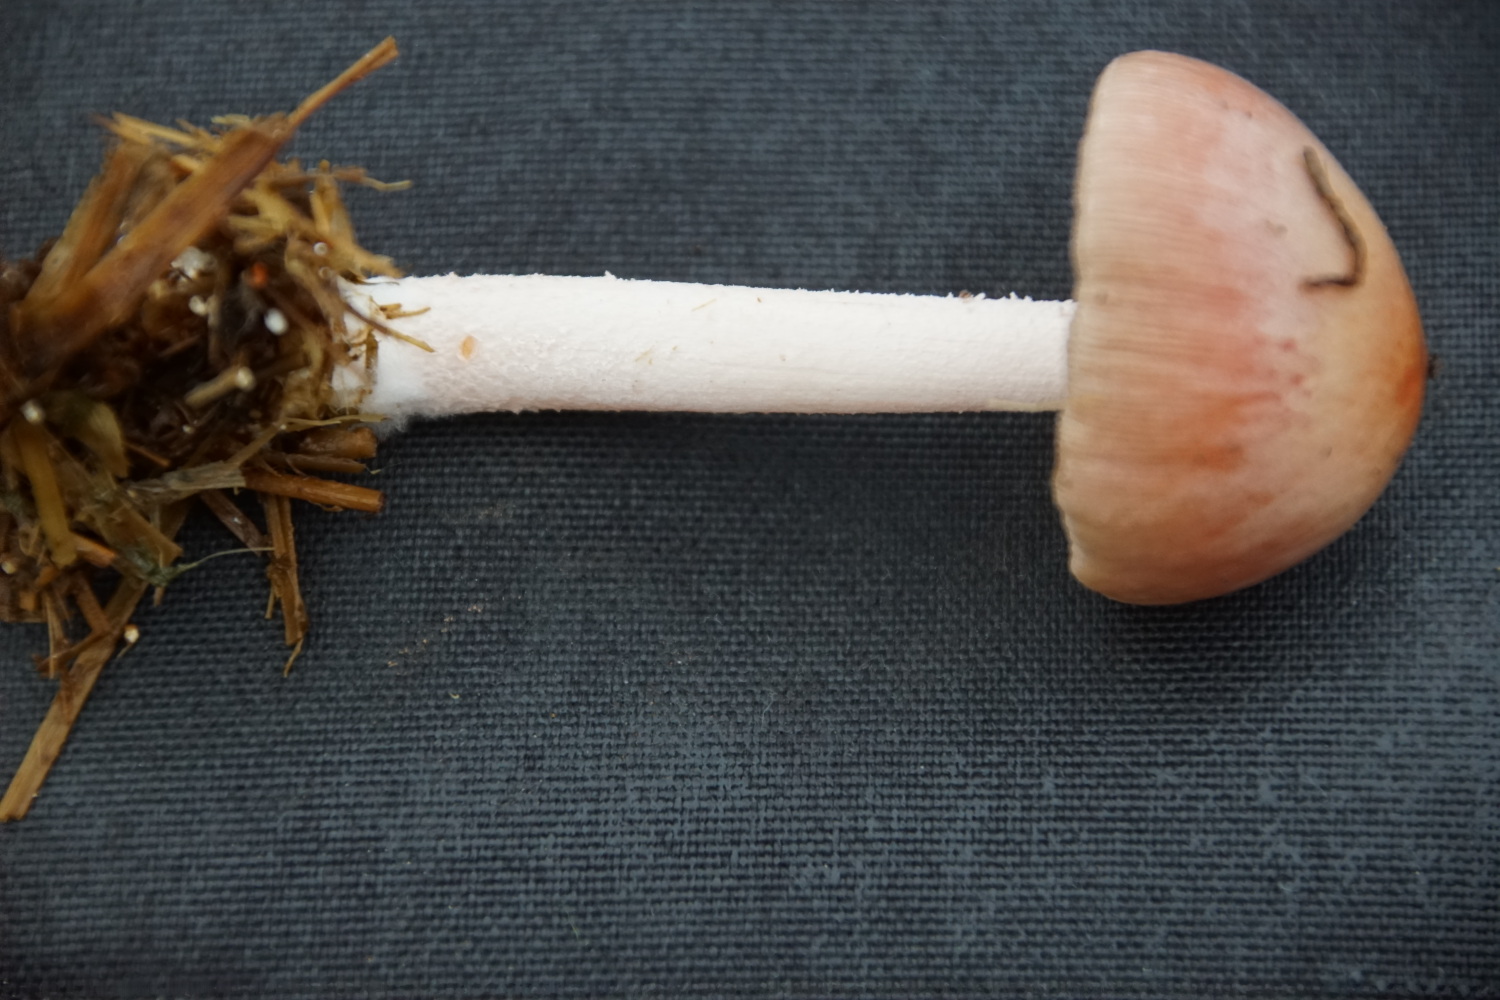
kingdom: Fungi
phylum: Basidiomycota
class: Agaricomycetes
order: Agaricales
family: Bolbitiaceae
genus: Bolbitius
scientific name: Bolbitius coprophilus
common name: rosa gulhat
